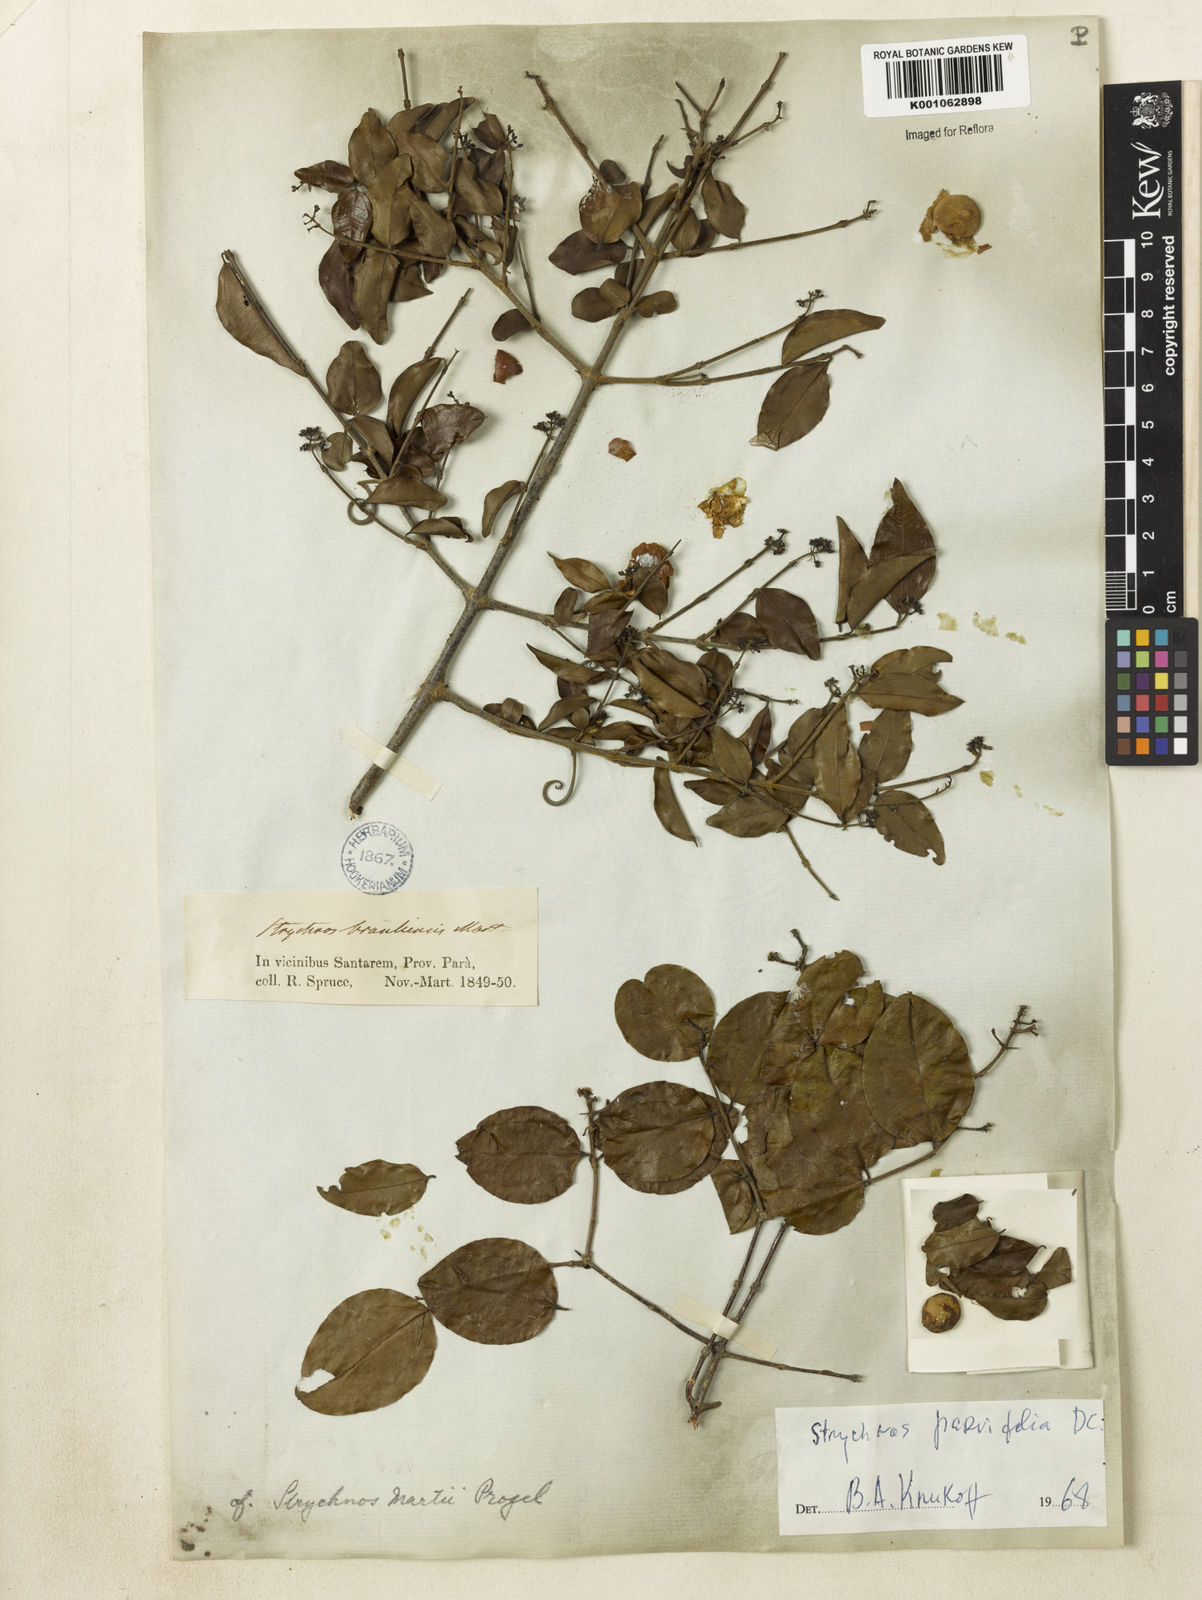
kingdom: Plantae
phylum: Tracheophyta
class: Magnoliopsida
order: Gentianales
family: Loganiaceae
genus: Strychnos
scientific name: Strychnos parvifolia
